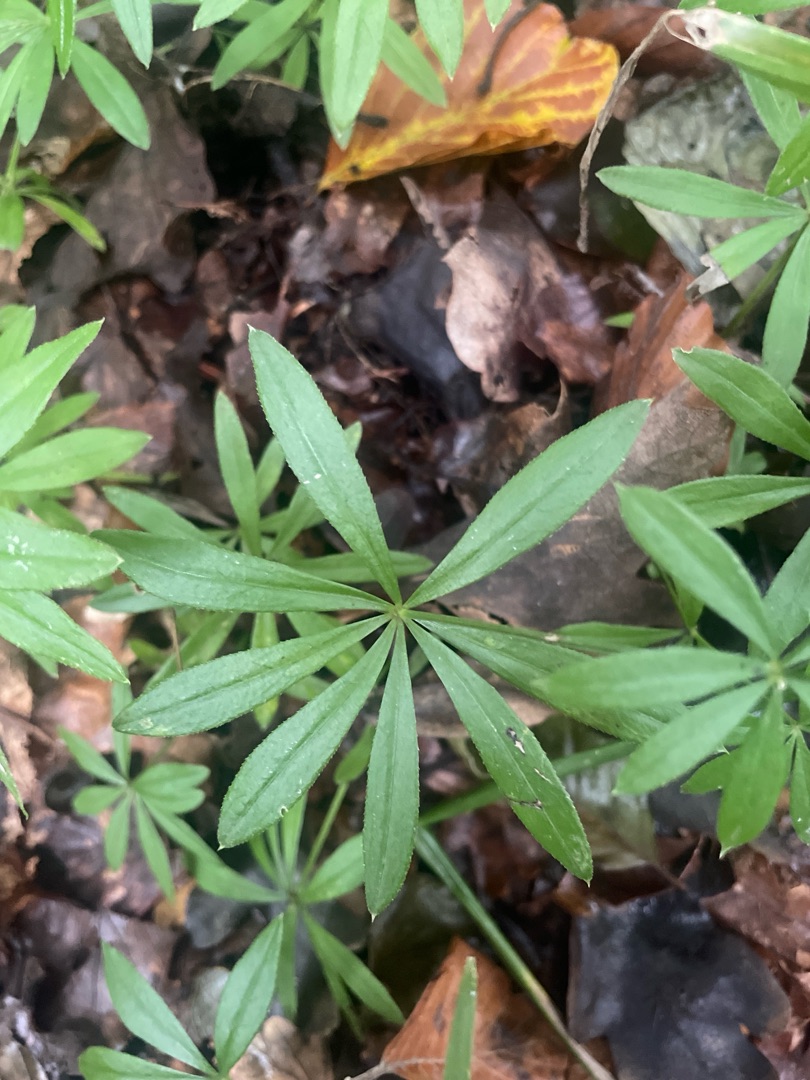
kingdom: Plantae
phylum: Tracheophyta
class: Magnoliopsida
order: Gentianales
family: Rubiaceae
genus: Galium
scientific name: Galium odoratum
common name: Skovmærke
